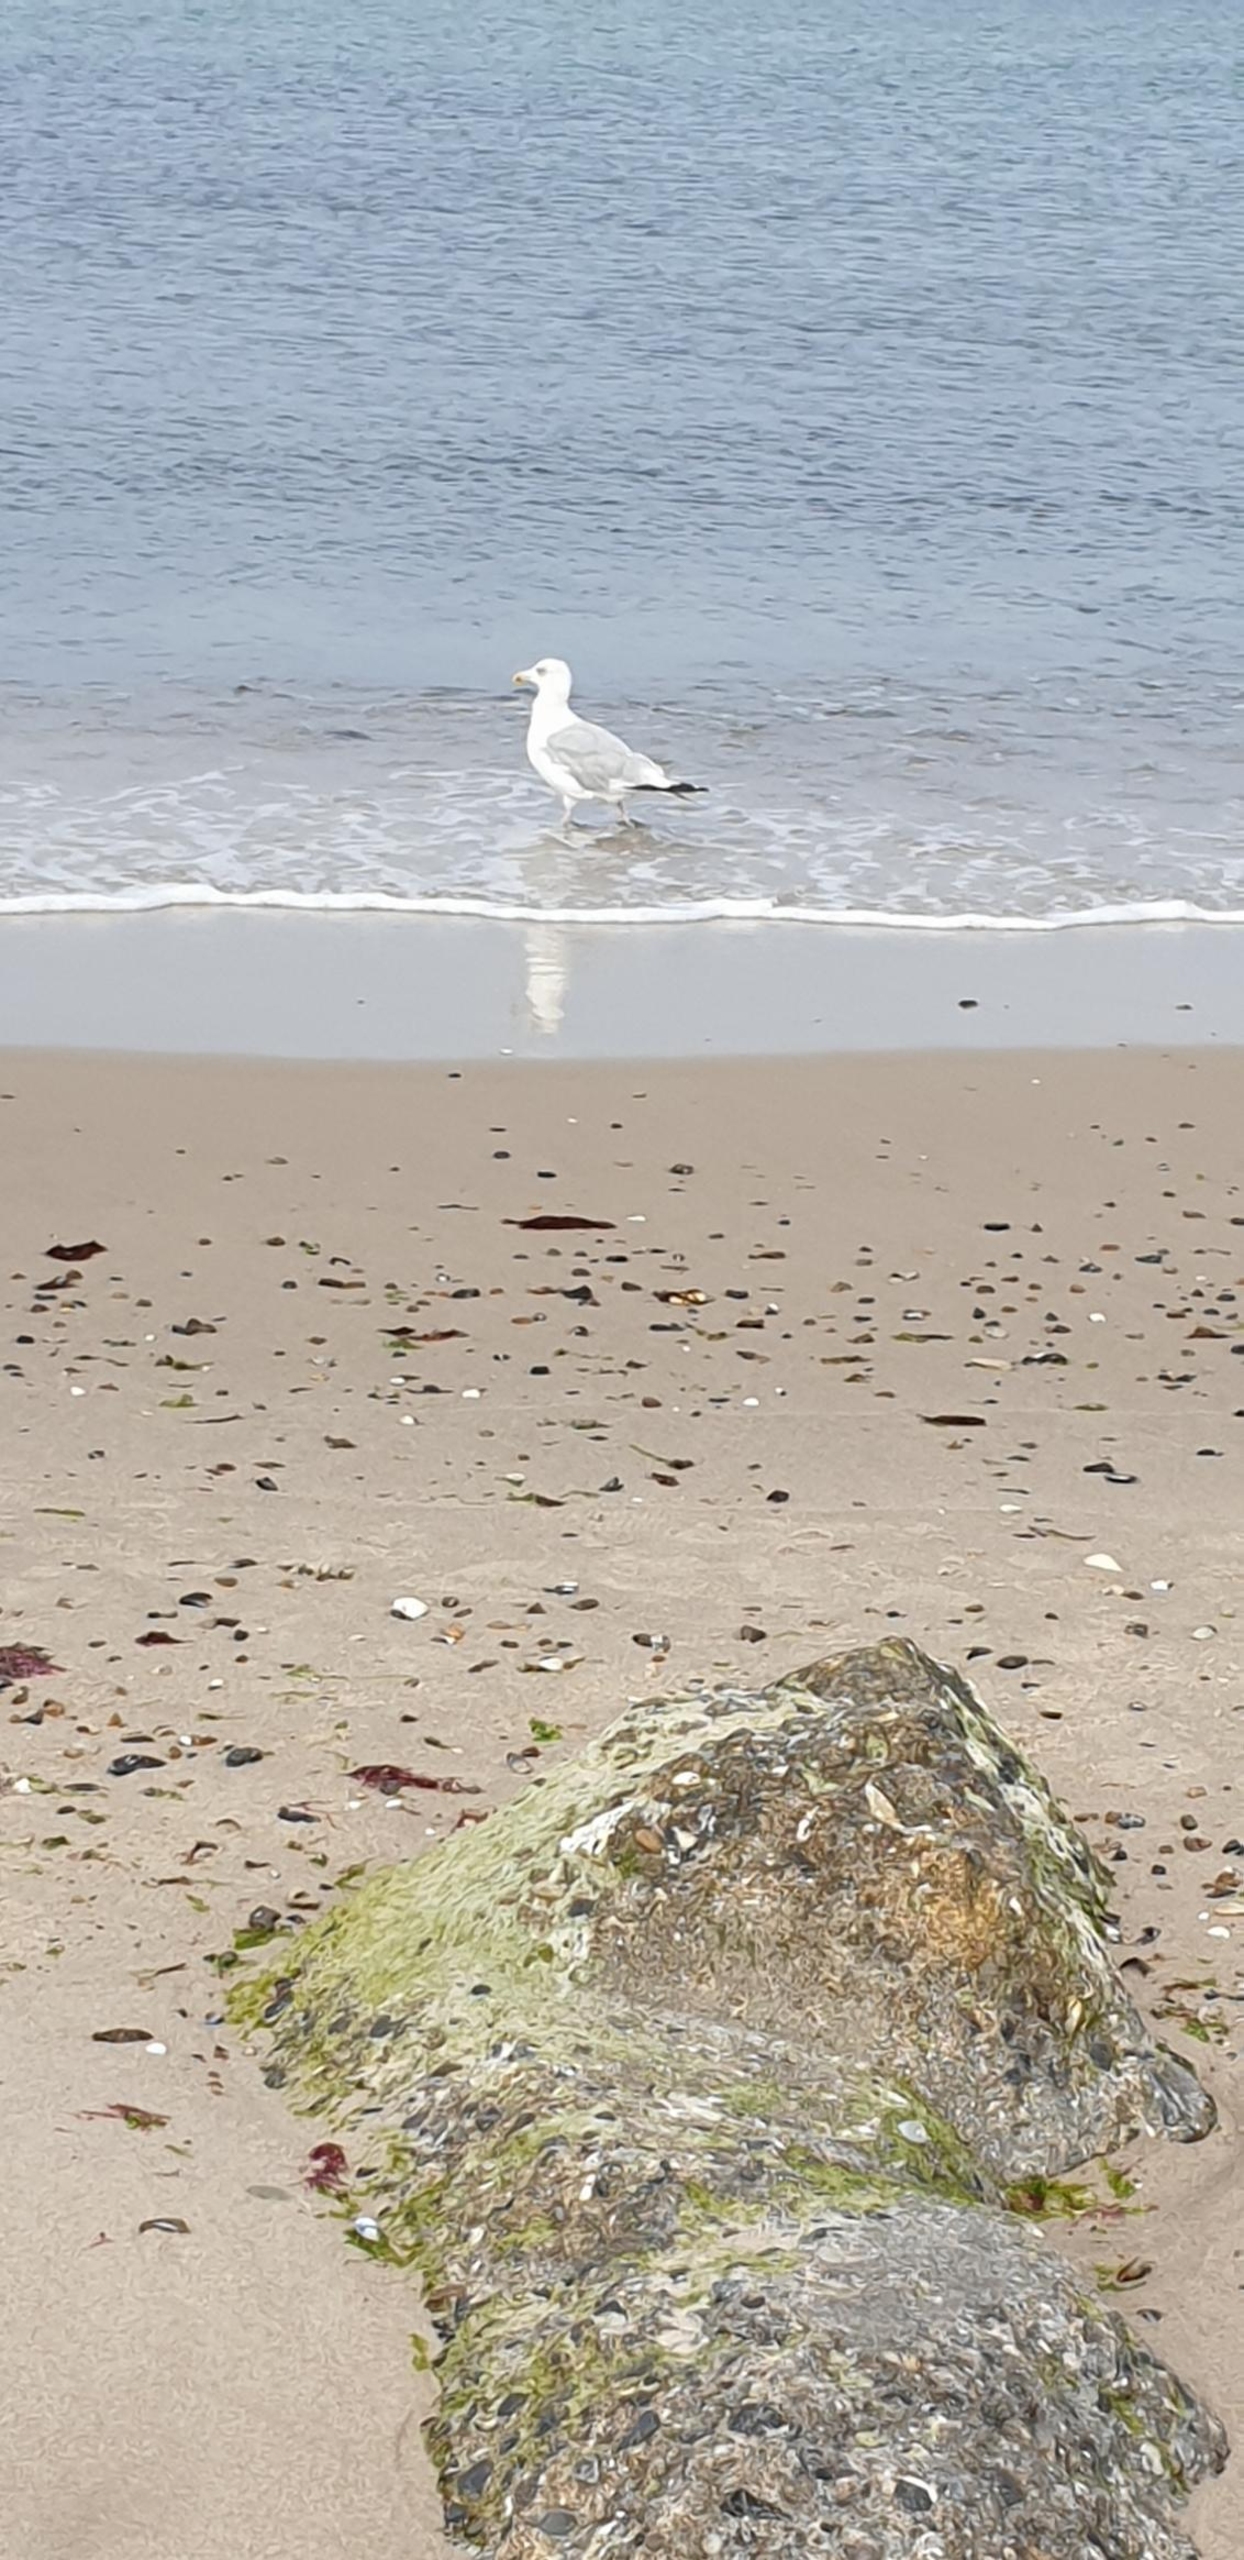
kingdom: Animalia
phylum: Chordata
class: Aves
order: Charadriiformes
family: Laridae
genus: Larus
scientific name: Larus argentatus
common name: Sølvmåge
